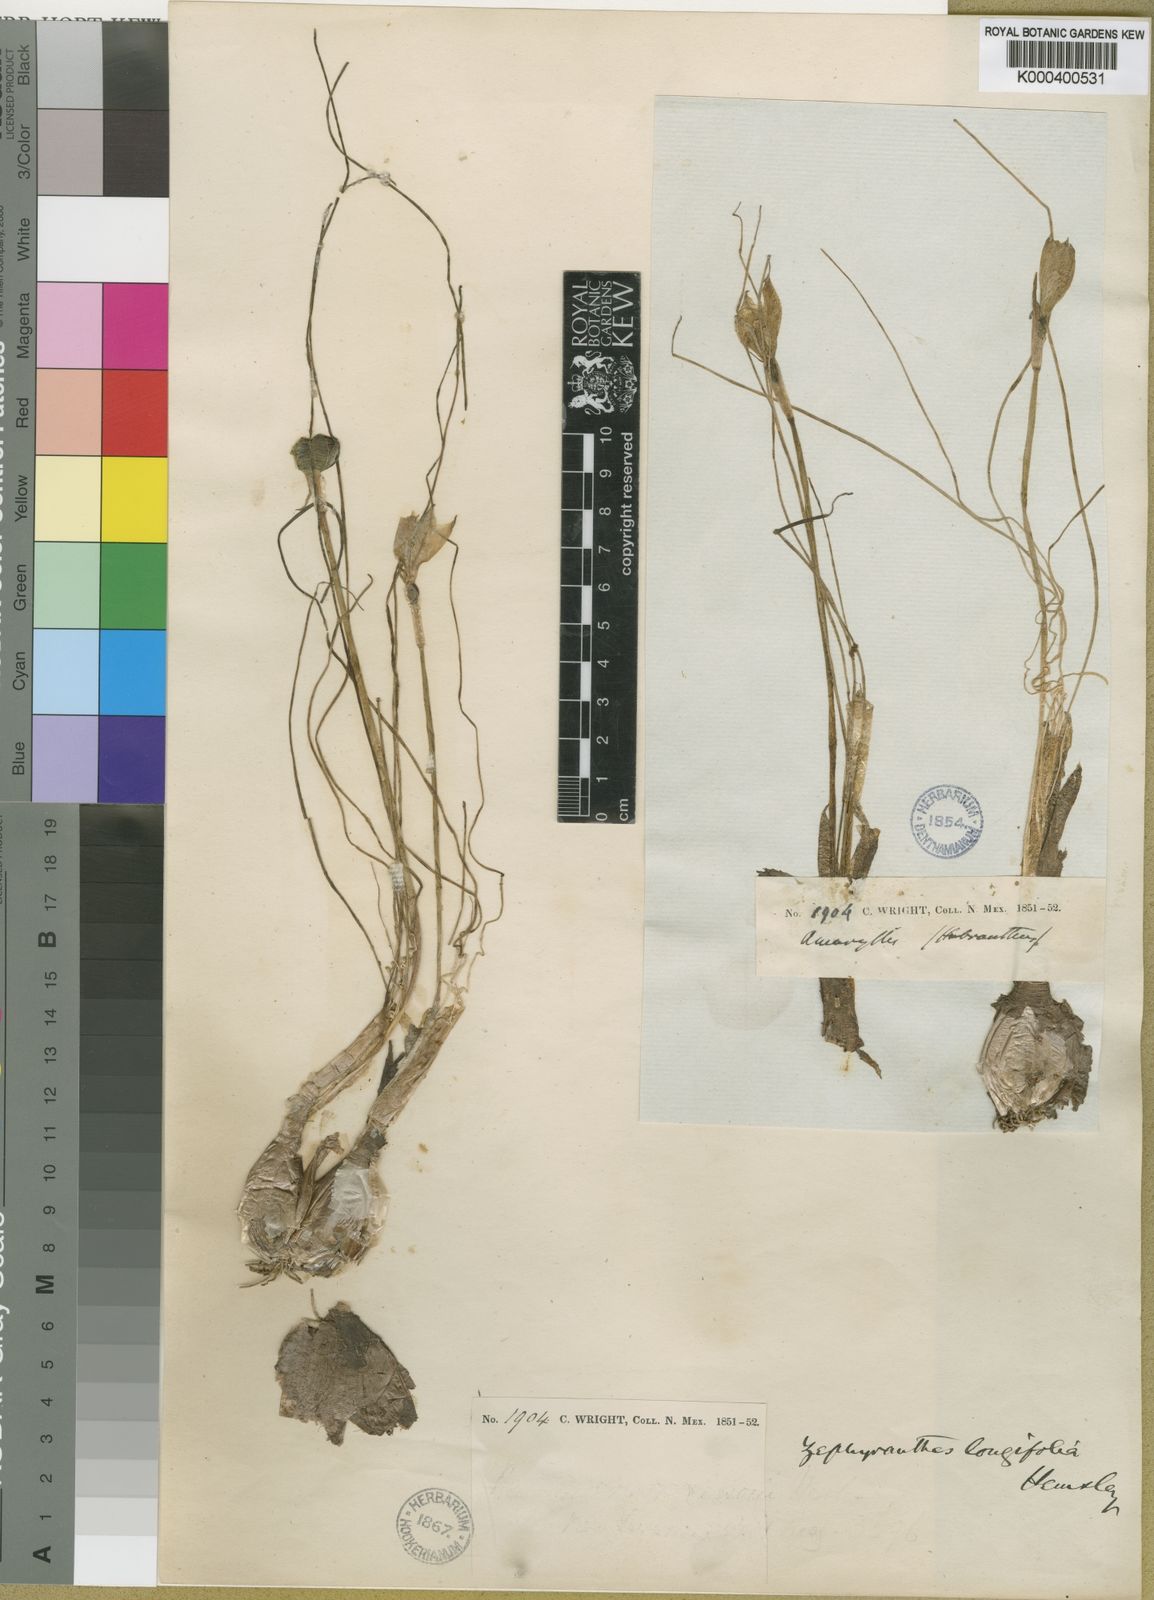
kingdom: Plantae
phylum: Tracheophyta
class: Liliopsida
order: Asparagales
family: Amaryllidaceae
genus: Zephyranthes
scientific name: Zephyranthes longifolia
